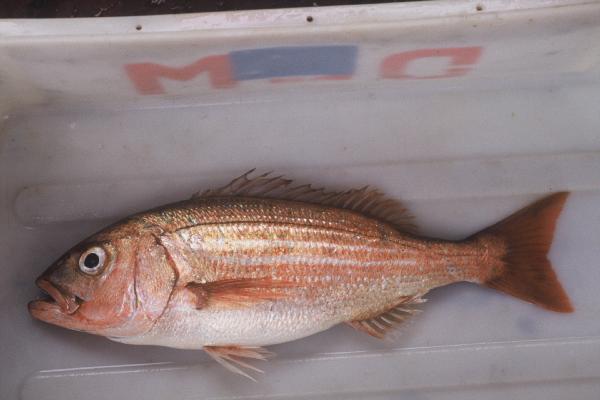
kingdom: Animalia
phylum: Chordata
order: Perciformes
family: Sparidae
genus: Argyrozona
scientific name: Argyrozona argyrozona
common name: Carpenter
